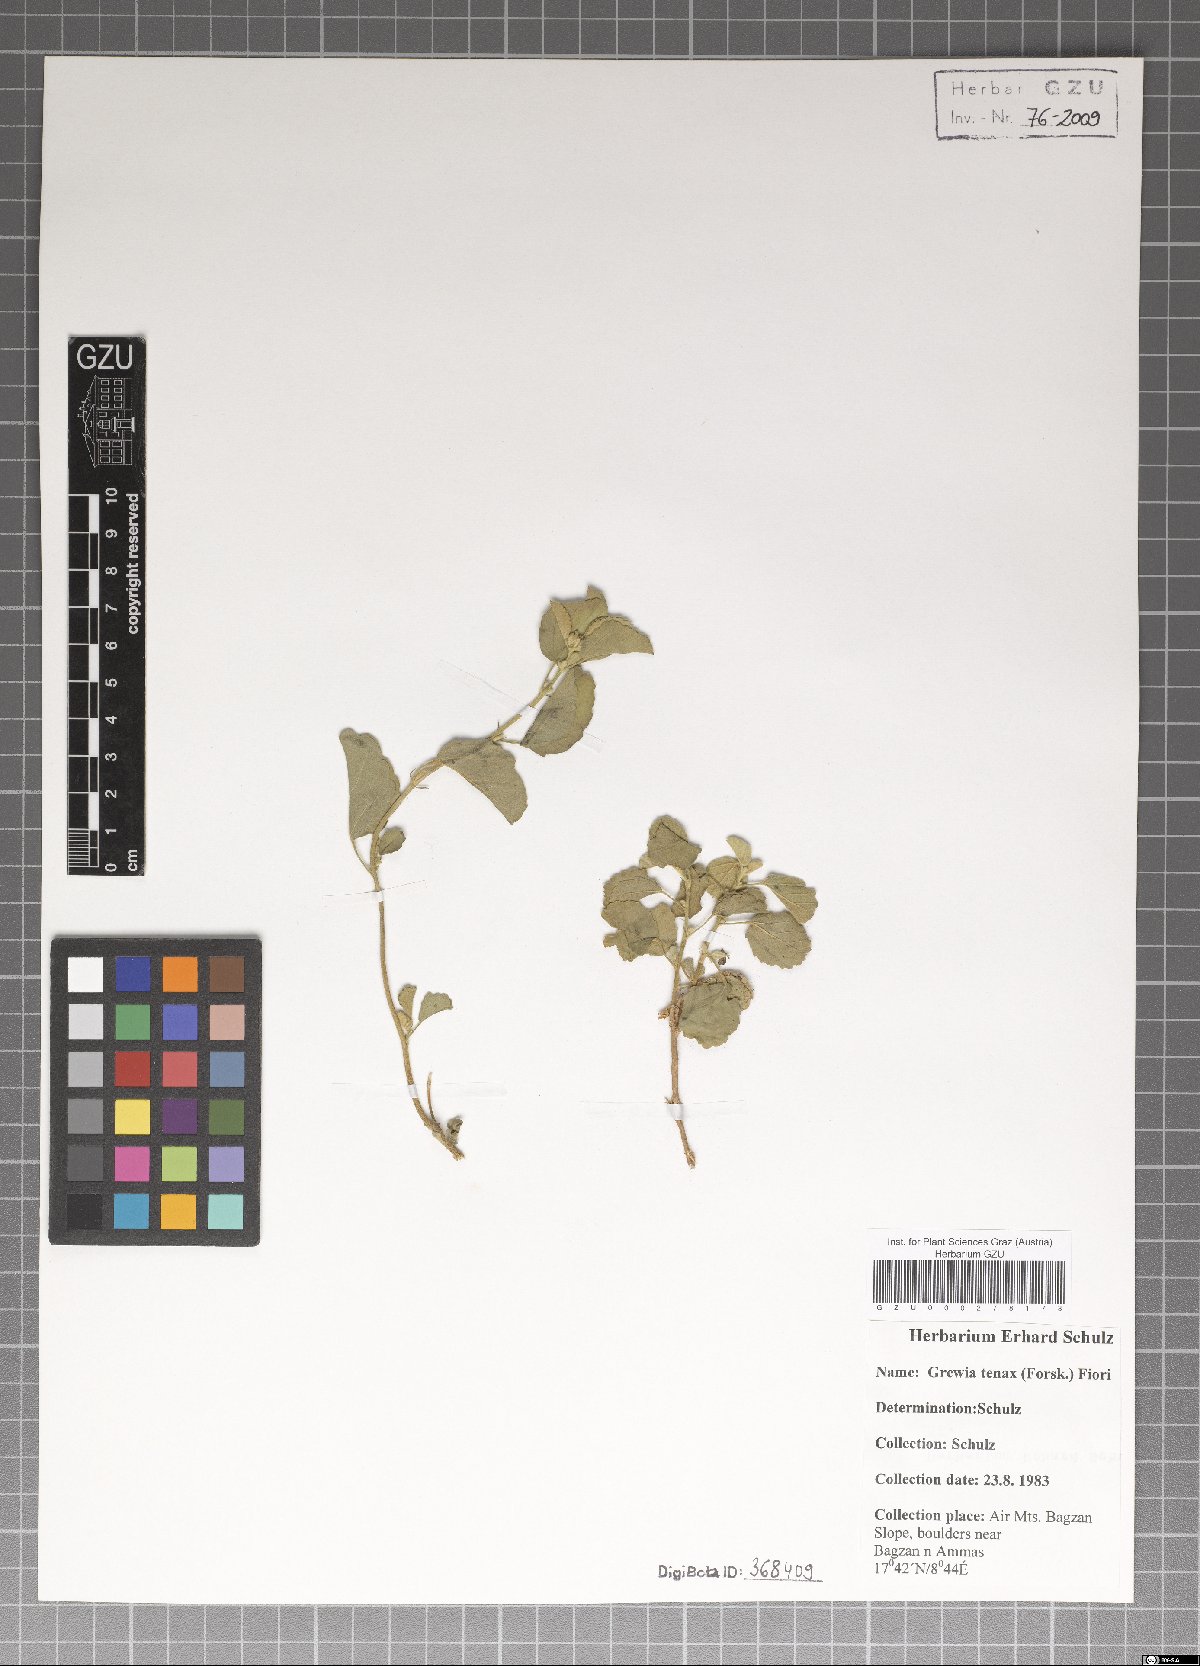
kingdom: Plantae
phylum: Tracheophyta
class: Magnoliopsida
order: Malvales
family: Malvaceae
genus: Grewia
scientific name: Grewia tenax
